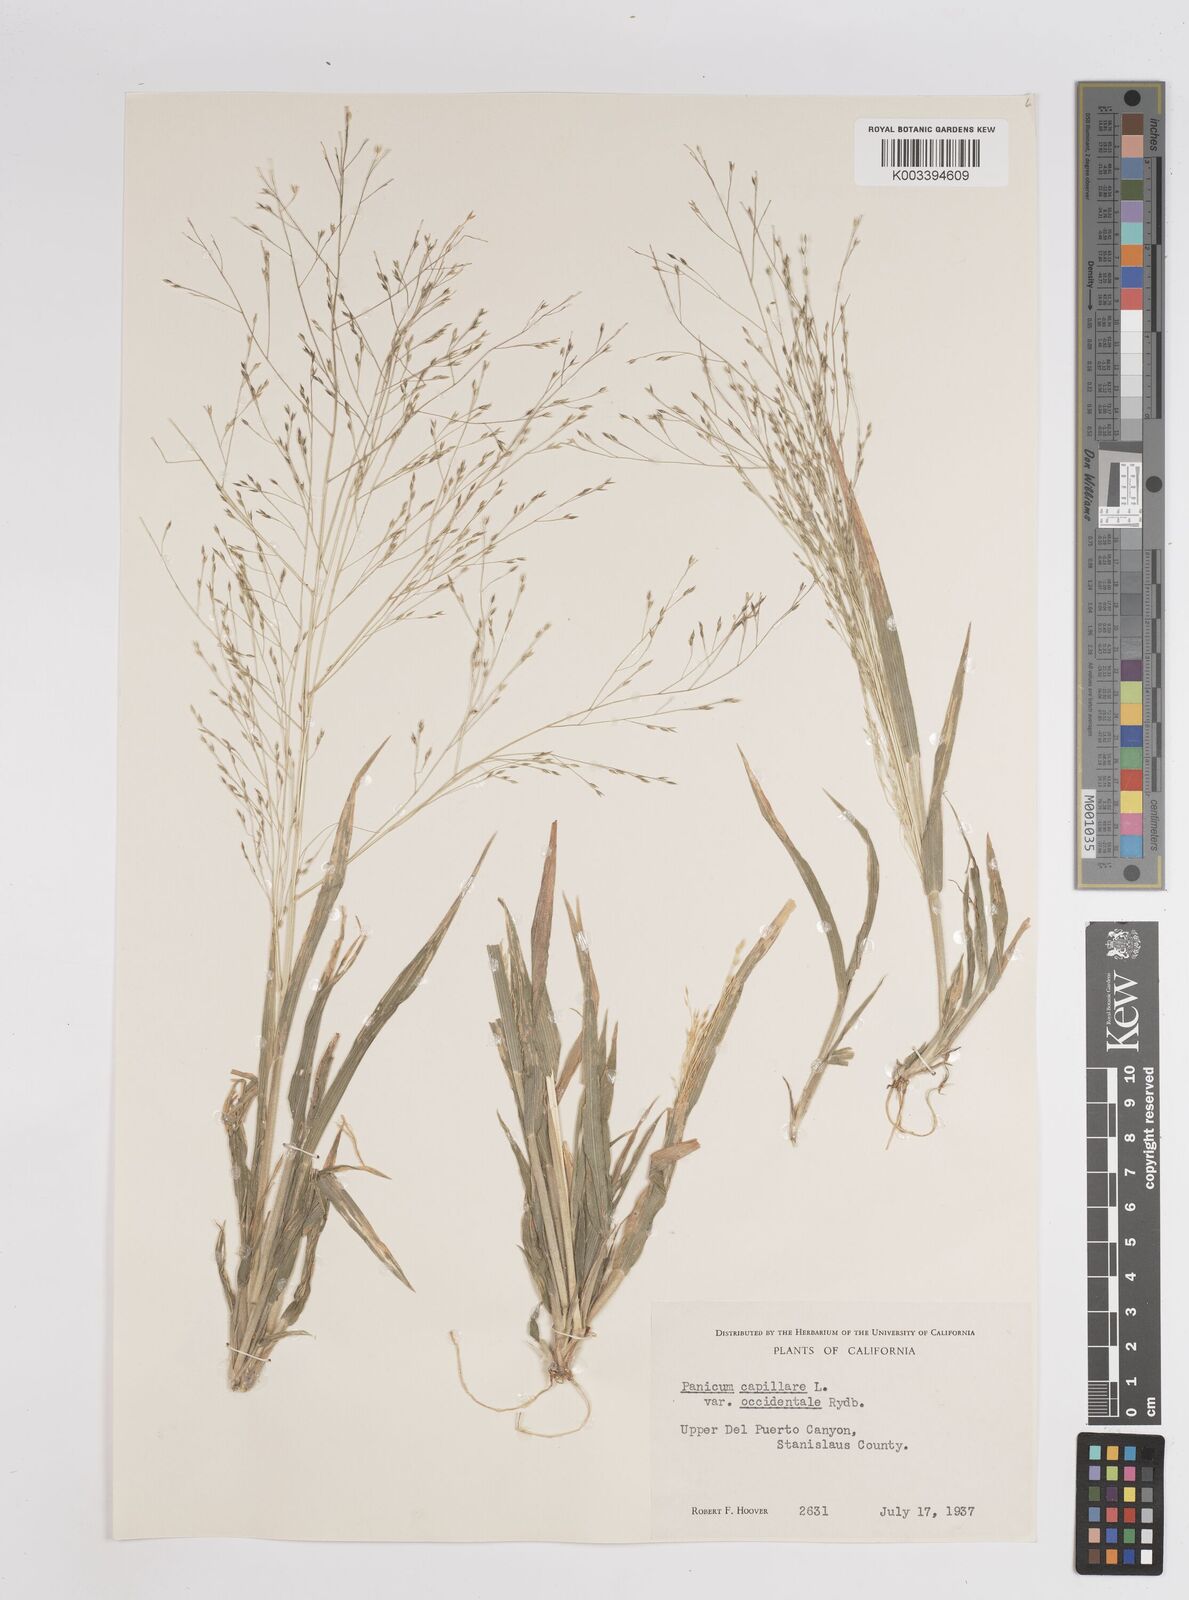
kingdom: Plantae
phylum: Tracheophyta
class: Liliopsida
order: Poales
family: Poaceae
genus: Panicum
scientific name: Panicum capillare
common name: Witch-grass
